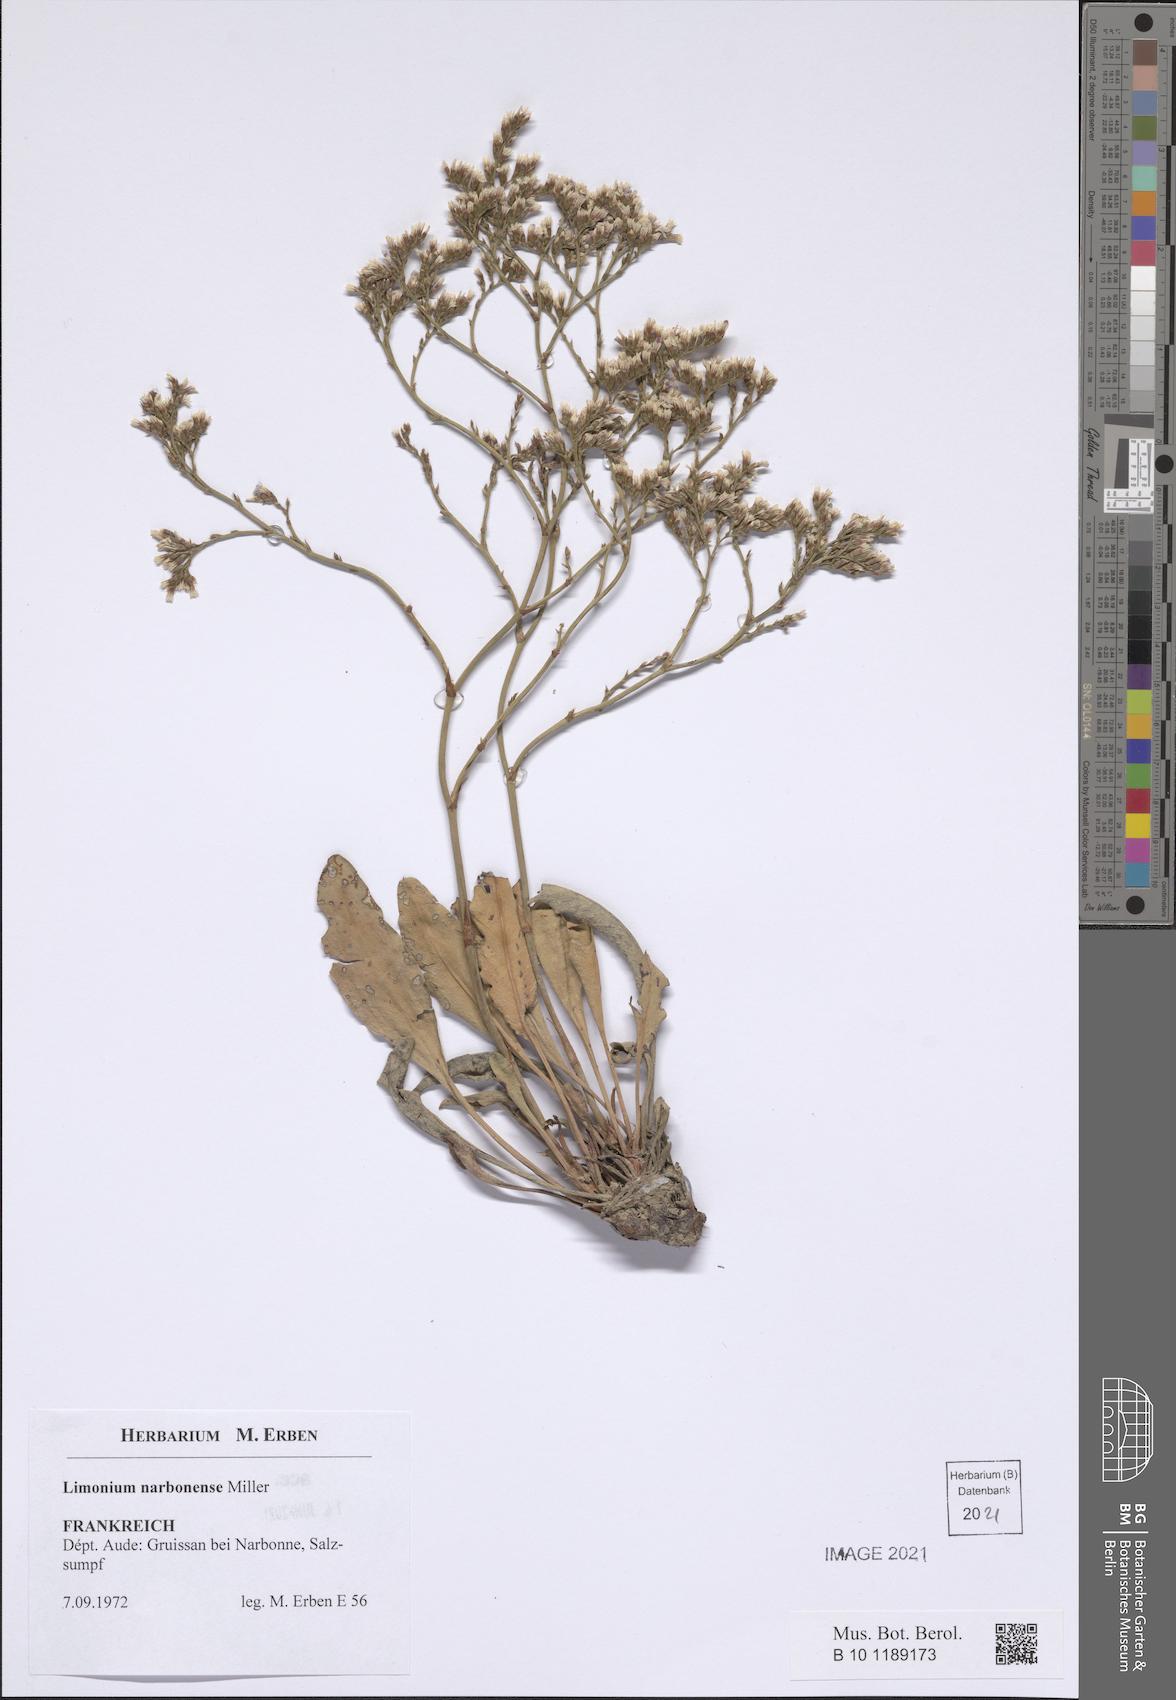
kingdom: Plantae
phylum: Tracheophyta
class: Magnoliopsida
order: Caryophyllales
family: Plumbaginaceae
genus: Limonium
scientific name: Limonium narbonense
